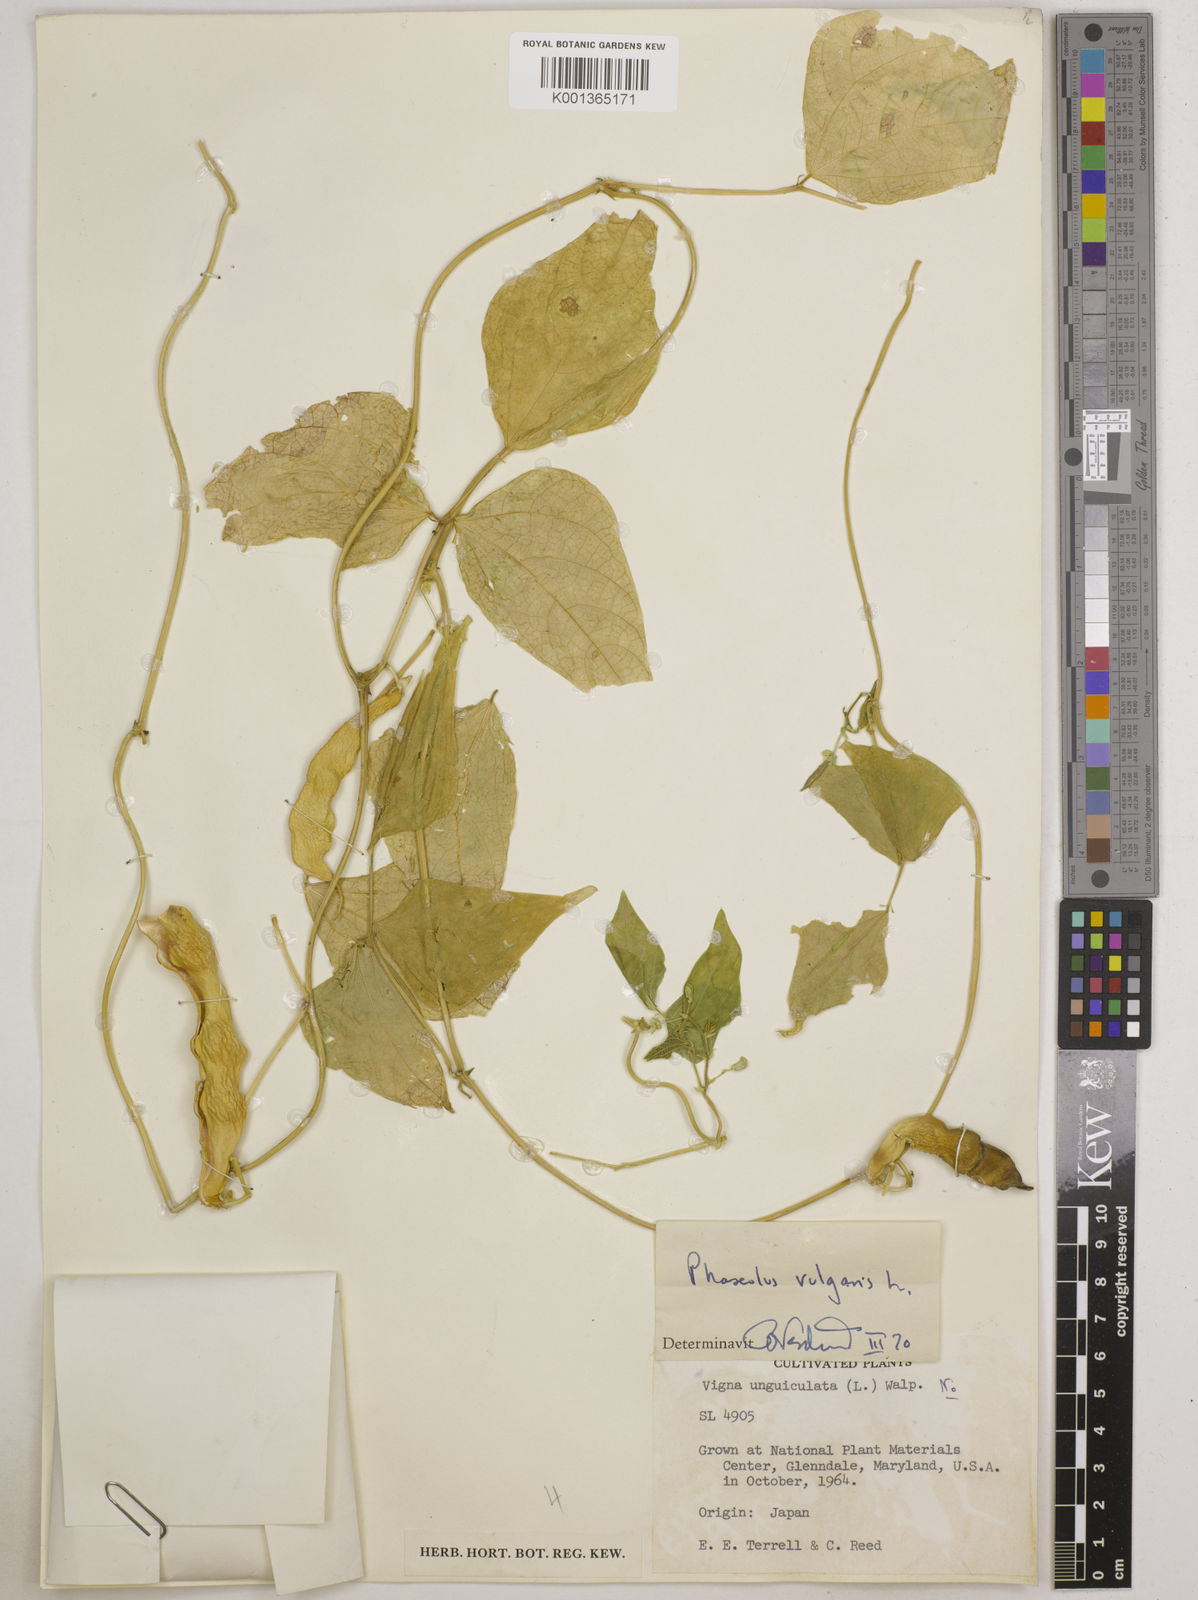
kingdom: Plantae
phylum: Tracheophyta
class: Magnoliopsida
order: Fabales
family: Fabaceae
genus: Phaseolus
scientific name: Phaseolus vulgaris
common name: Bean
